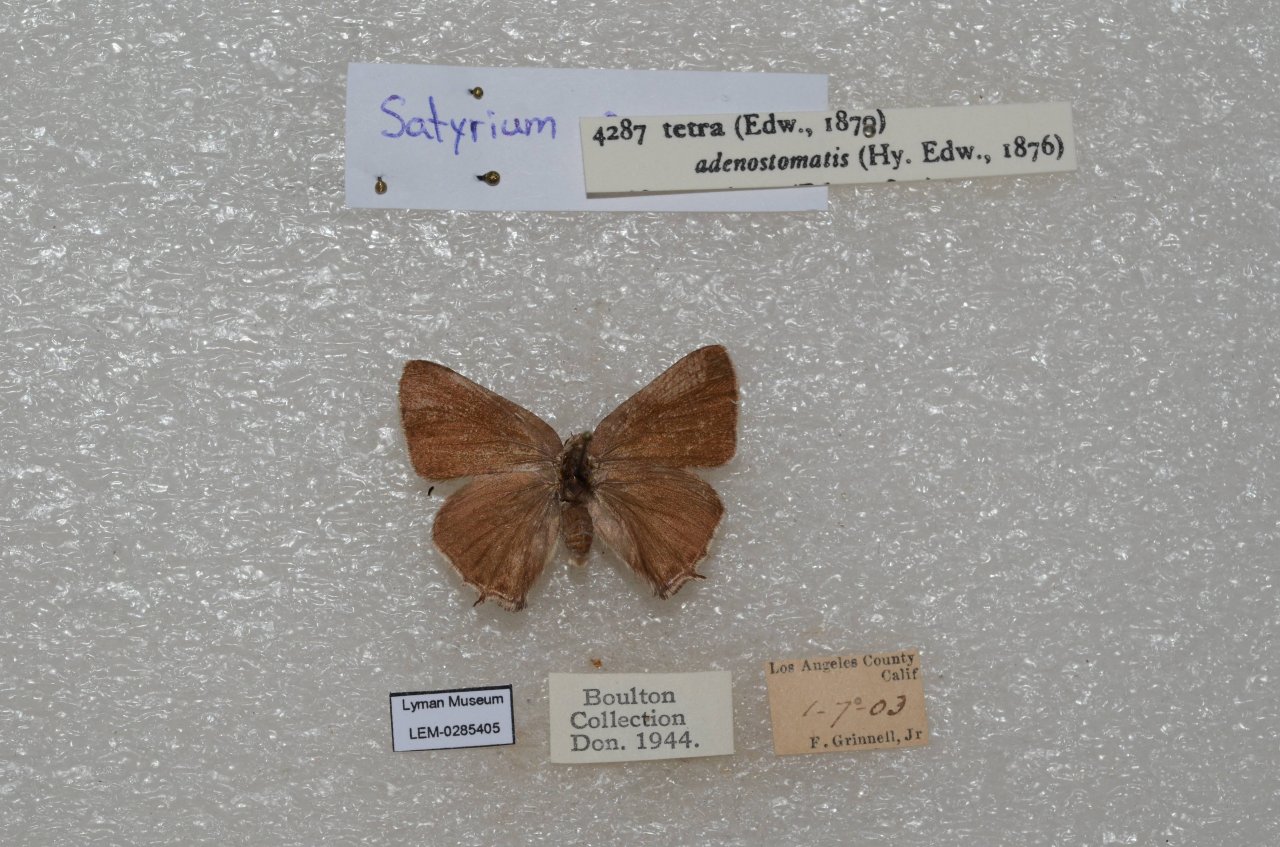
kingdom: Animalia
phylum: Arthropoda
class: Insecta
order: Lepidoptera
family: Lycaenidae
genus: Thecla
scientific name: Thecla tetra
